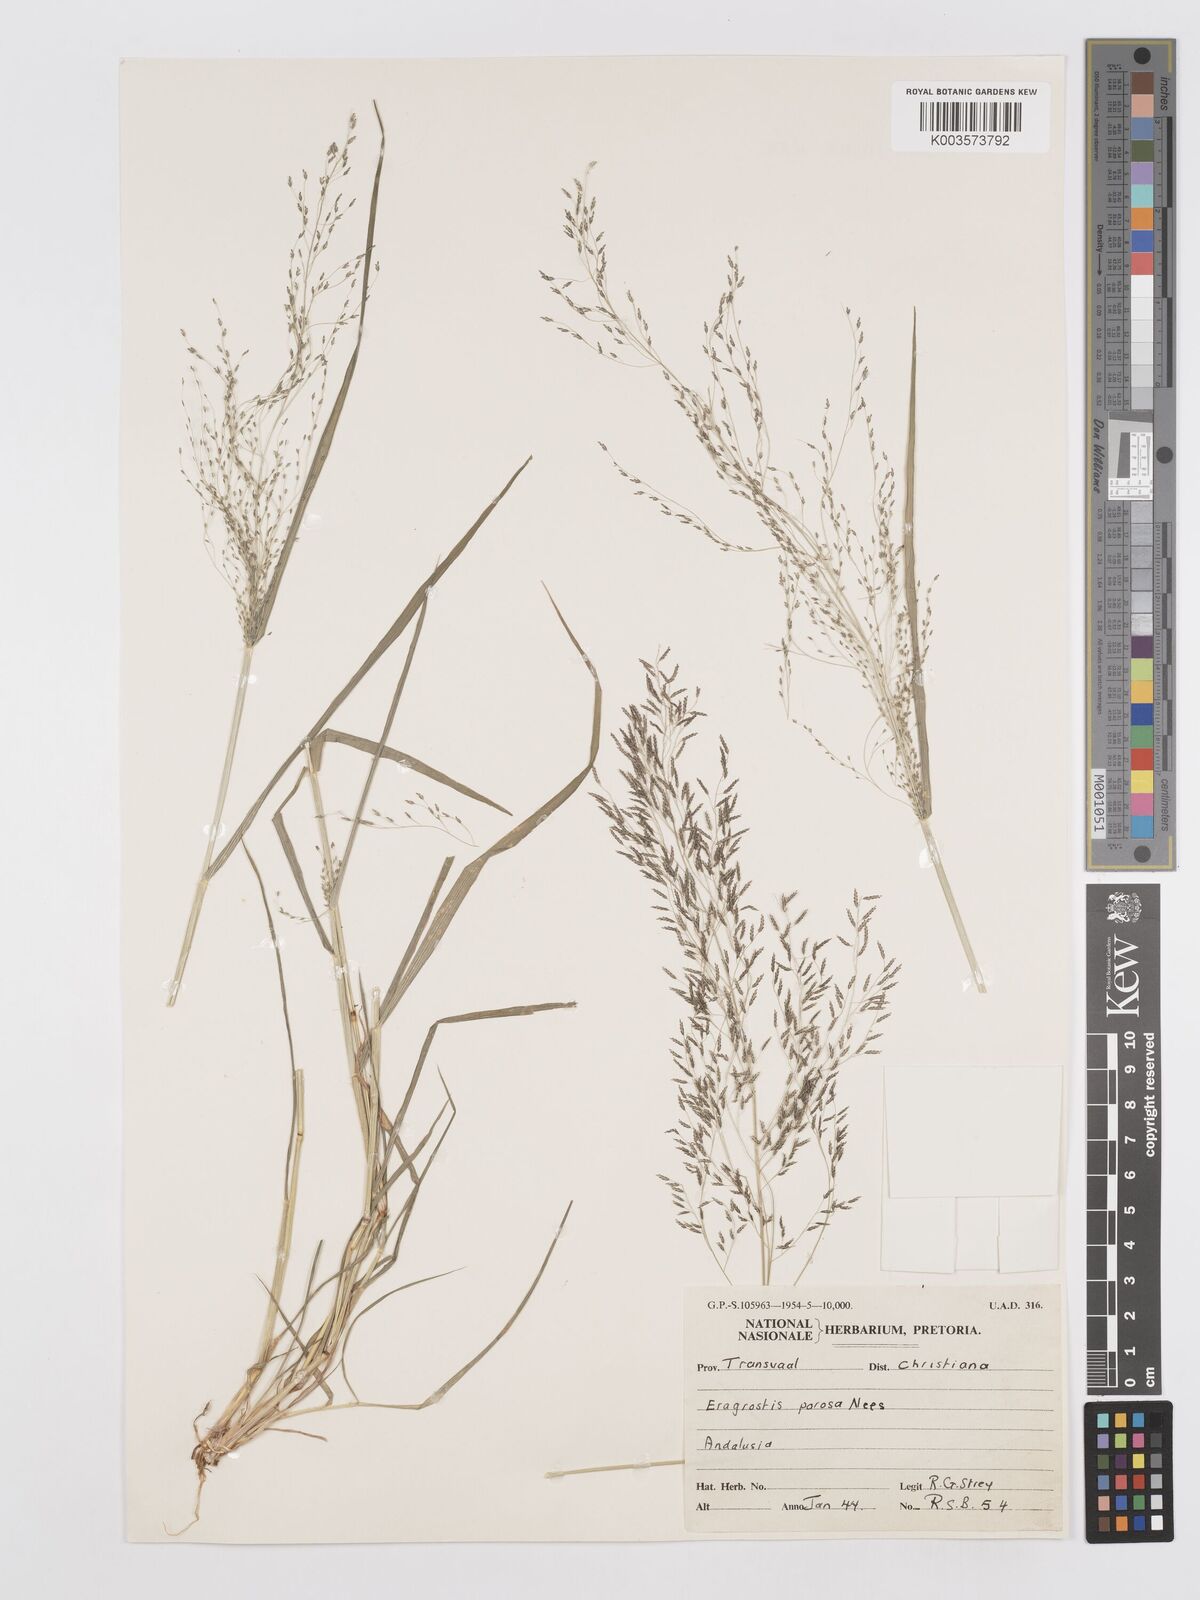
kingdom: Plantae
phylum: Tracheophyta
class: Liliopsida
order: Poales
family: Poaceae
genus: Eragrostis
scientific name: Eragrostis porosa
